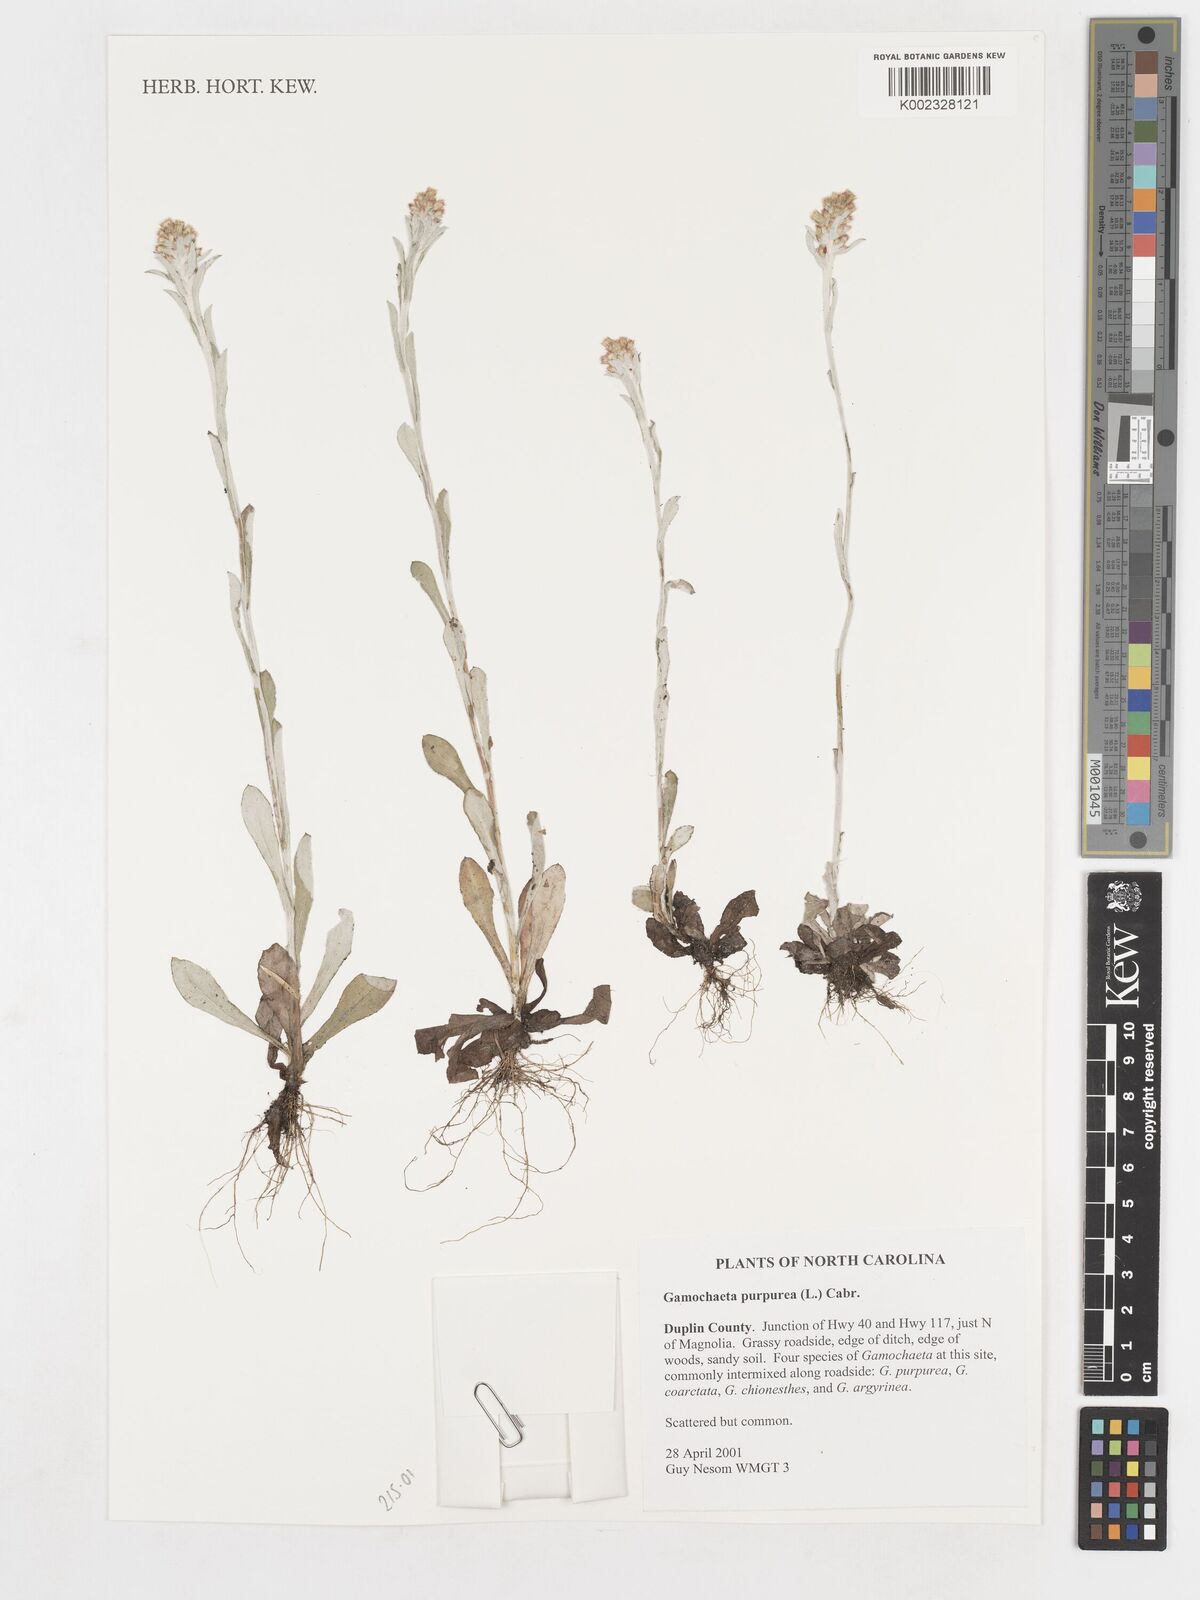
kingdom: Plantae
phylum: Tracheophyta
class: Magnoliopsida
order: Asterales
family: Asteraceae
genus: Gamochaeta
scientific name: Gamochaeta purpurea
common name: Purple cudweed
